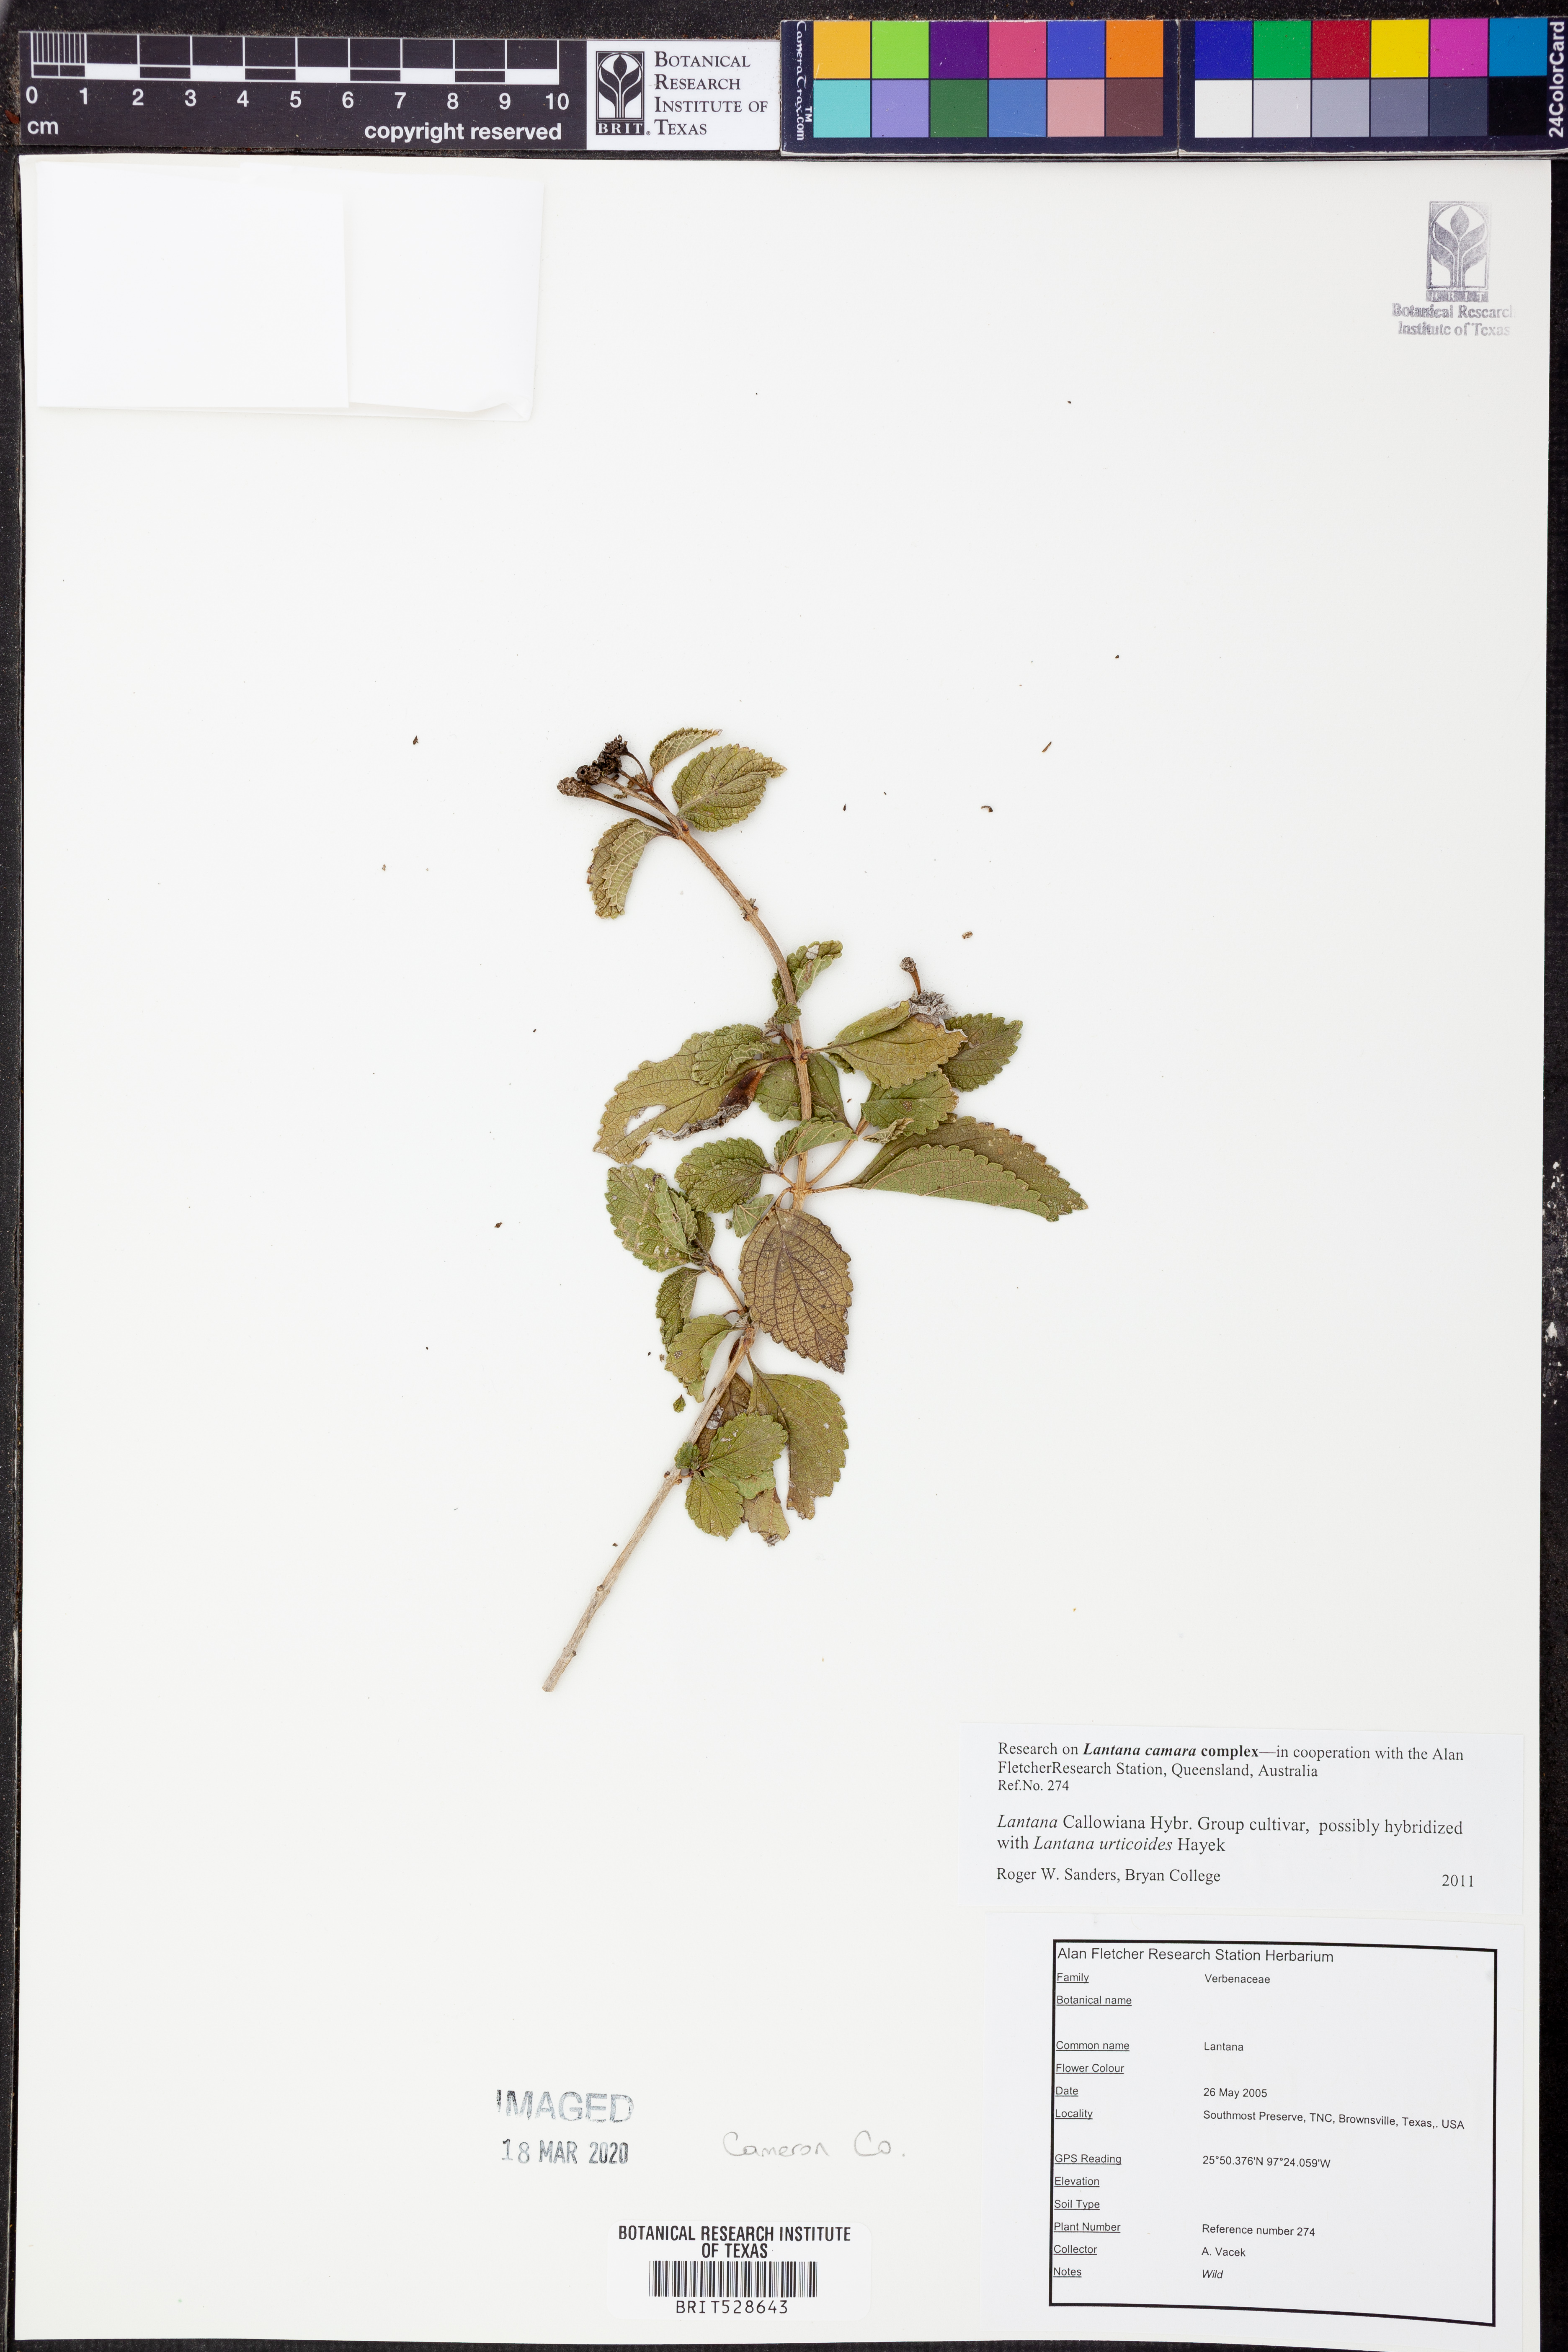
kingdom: Plantae
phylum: Tracheophyta
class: Magnoliopsida
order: Lamiales
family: Verbenaceae
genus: Lantana
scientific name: Lantana
